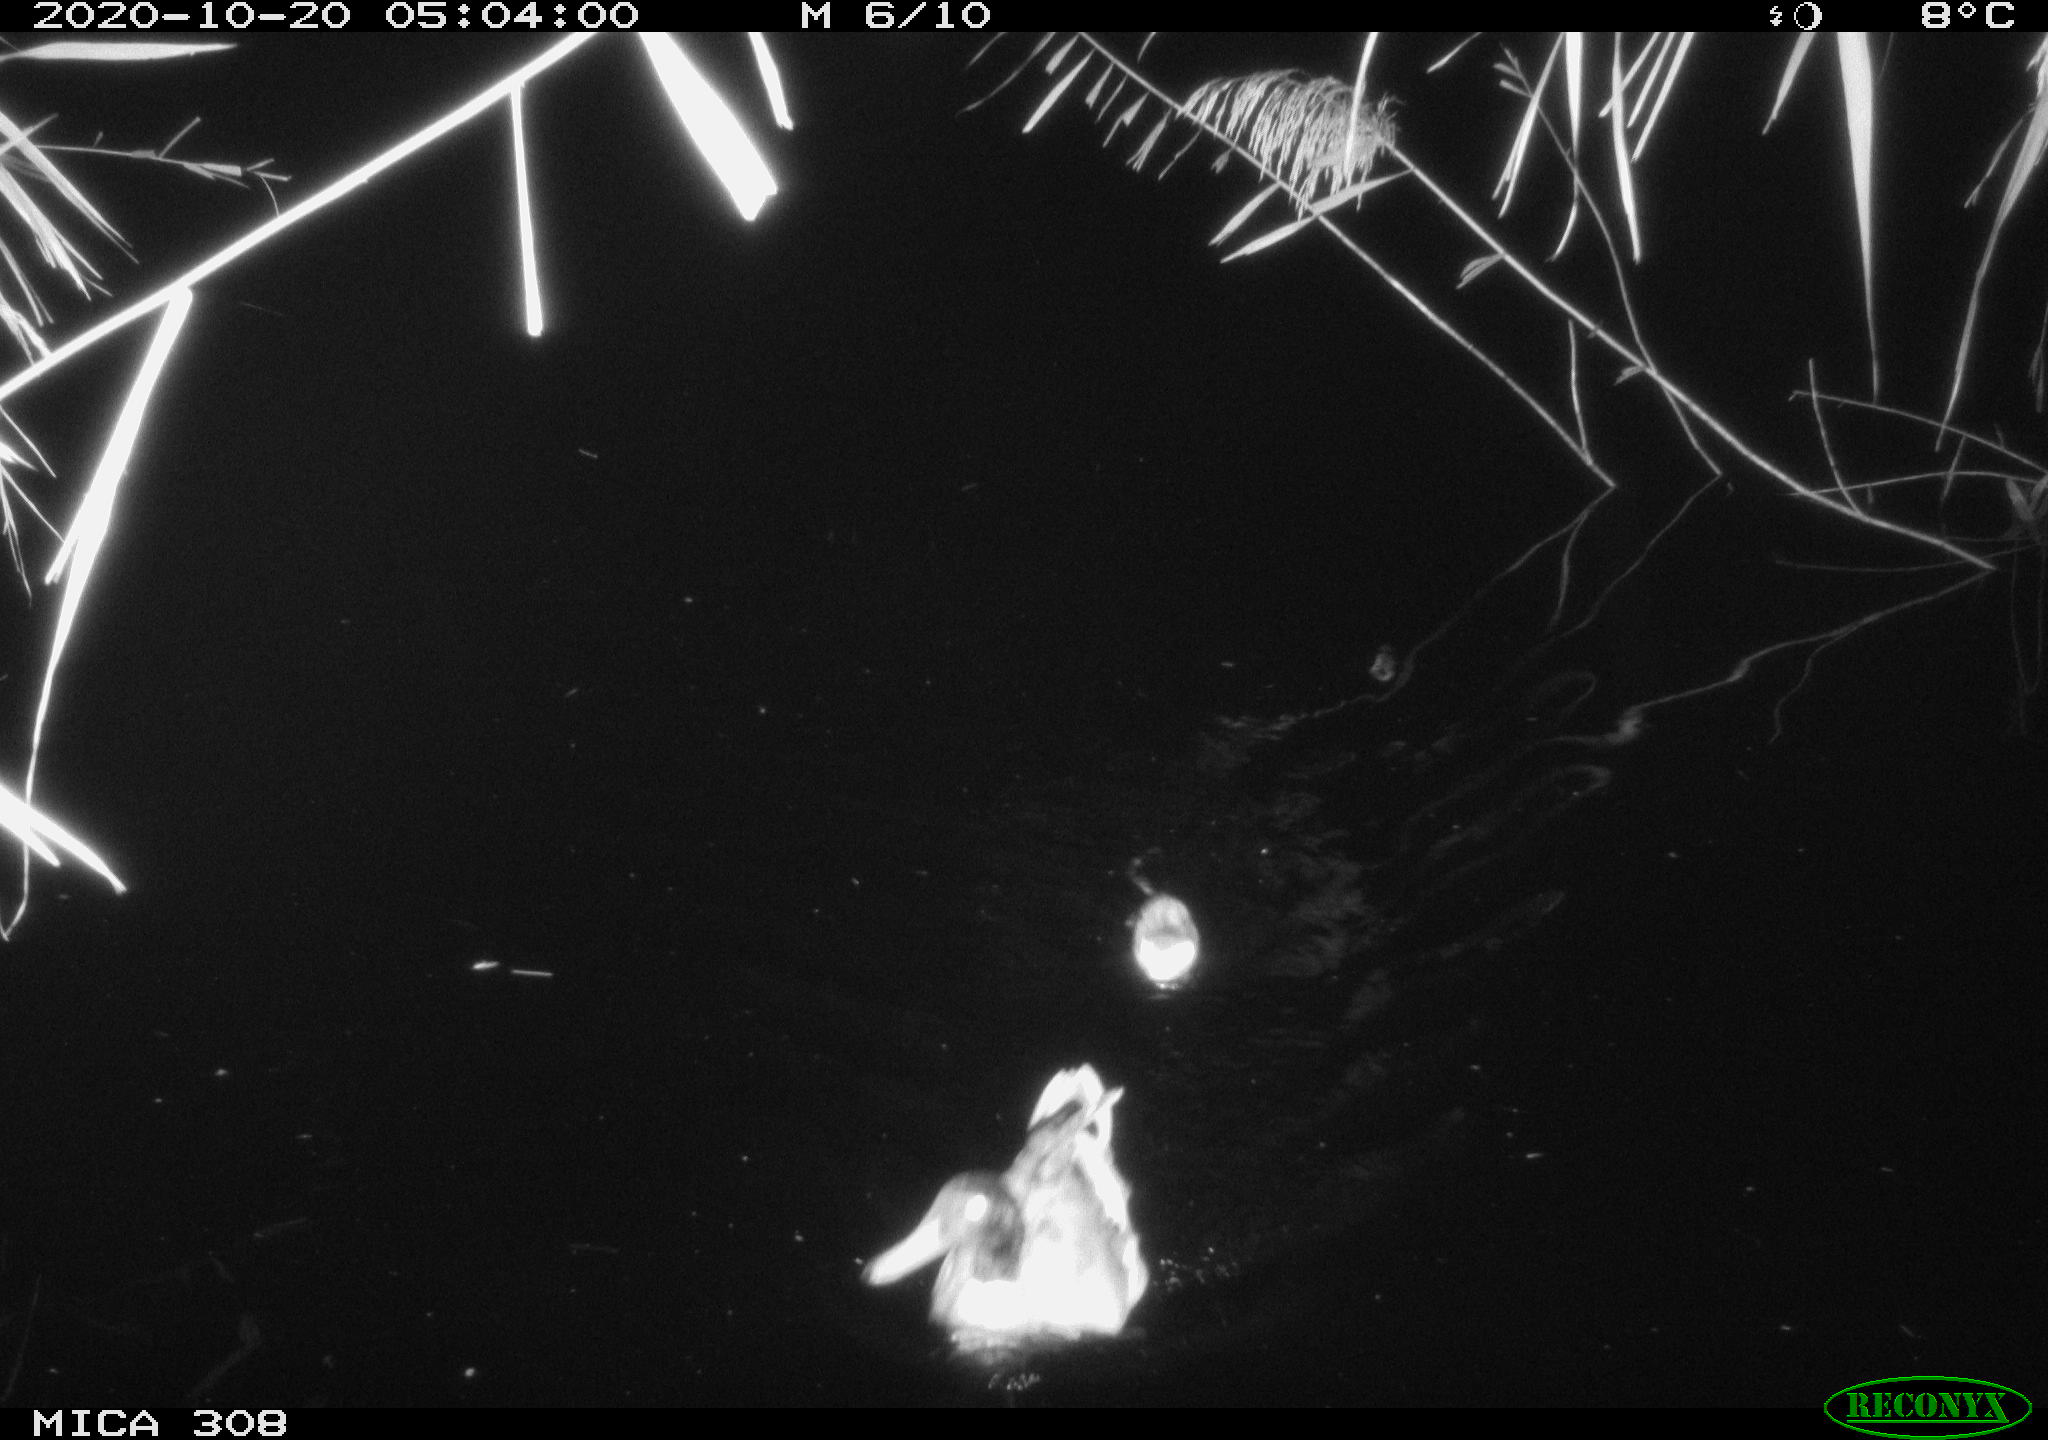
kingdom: Animalia
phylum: Chordata
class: Aves
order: Anseriformes
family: Anatidae
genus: Anas
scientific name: Anas platyrhynchos
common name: Mallard
